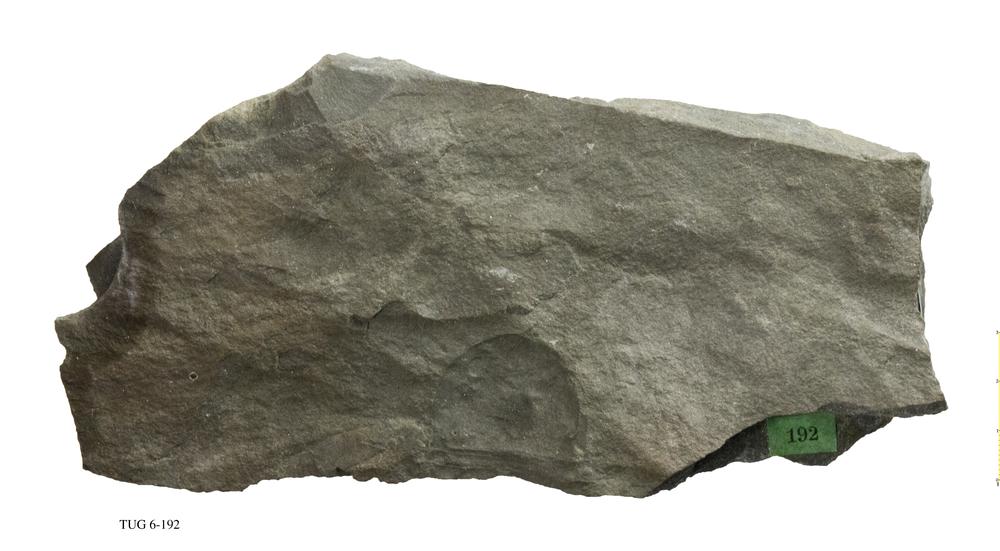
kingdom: Animalia
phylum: Arthropoda
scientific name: Arthropoda
